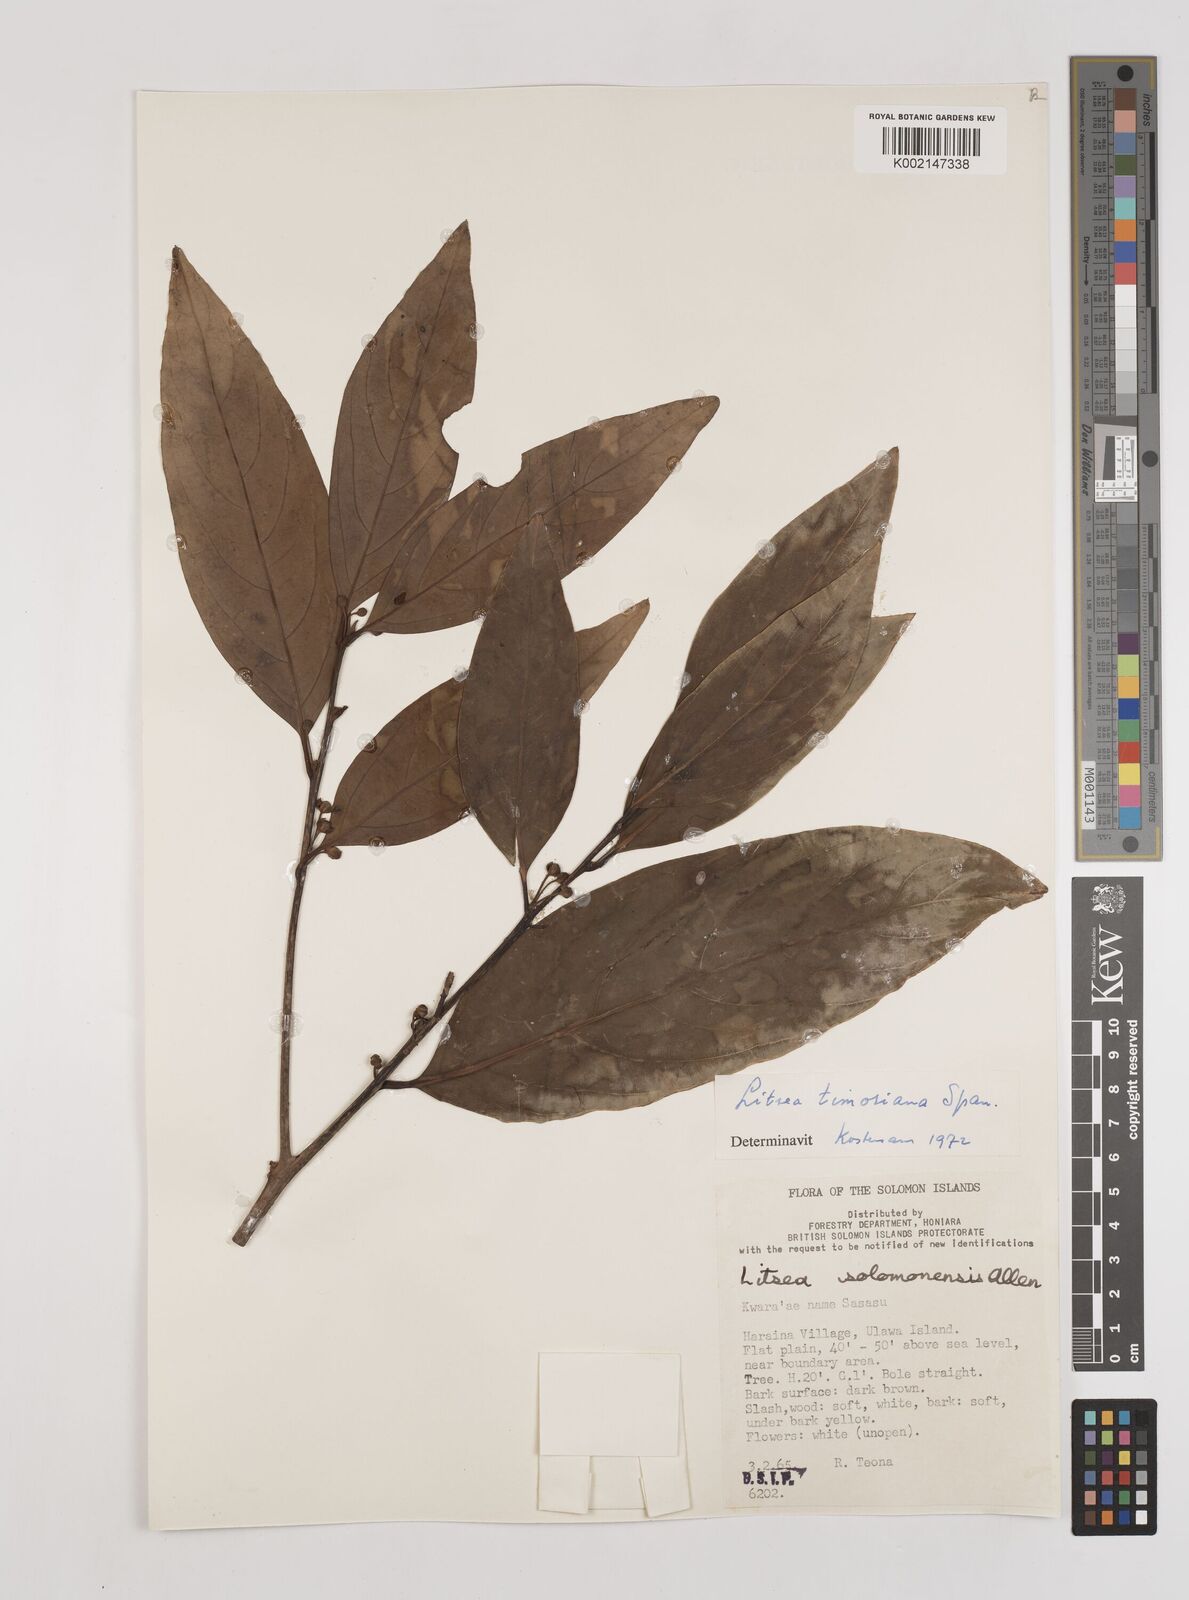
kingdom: Plantae
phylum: Tracheophyta
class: Magnoliopsida
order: Laurales
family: Lauraceae
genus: Litsea
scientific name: Litsea timoriana
